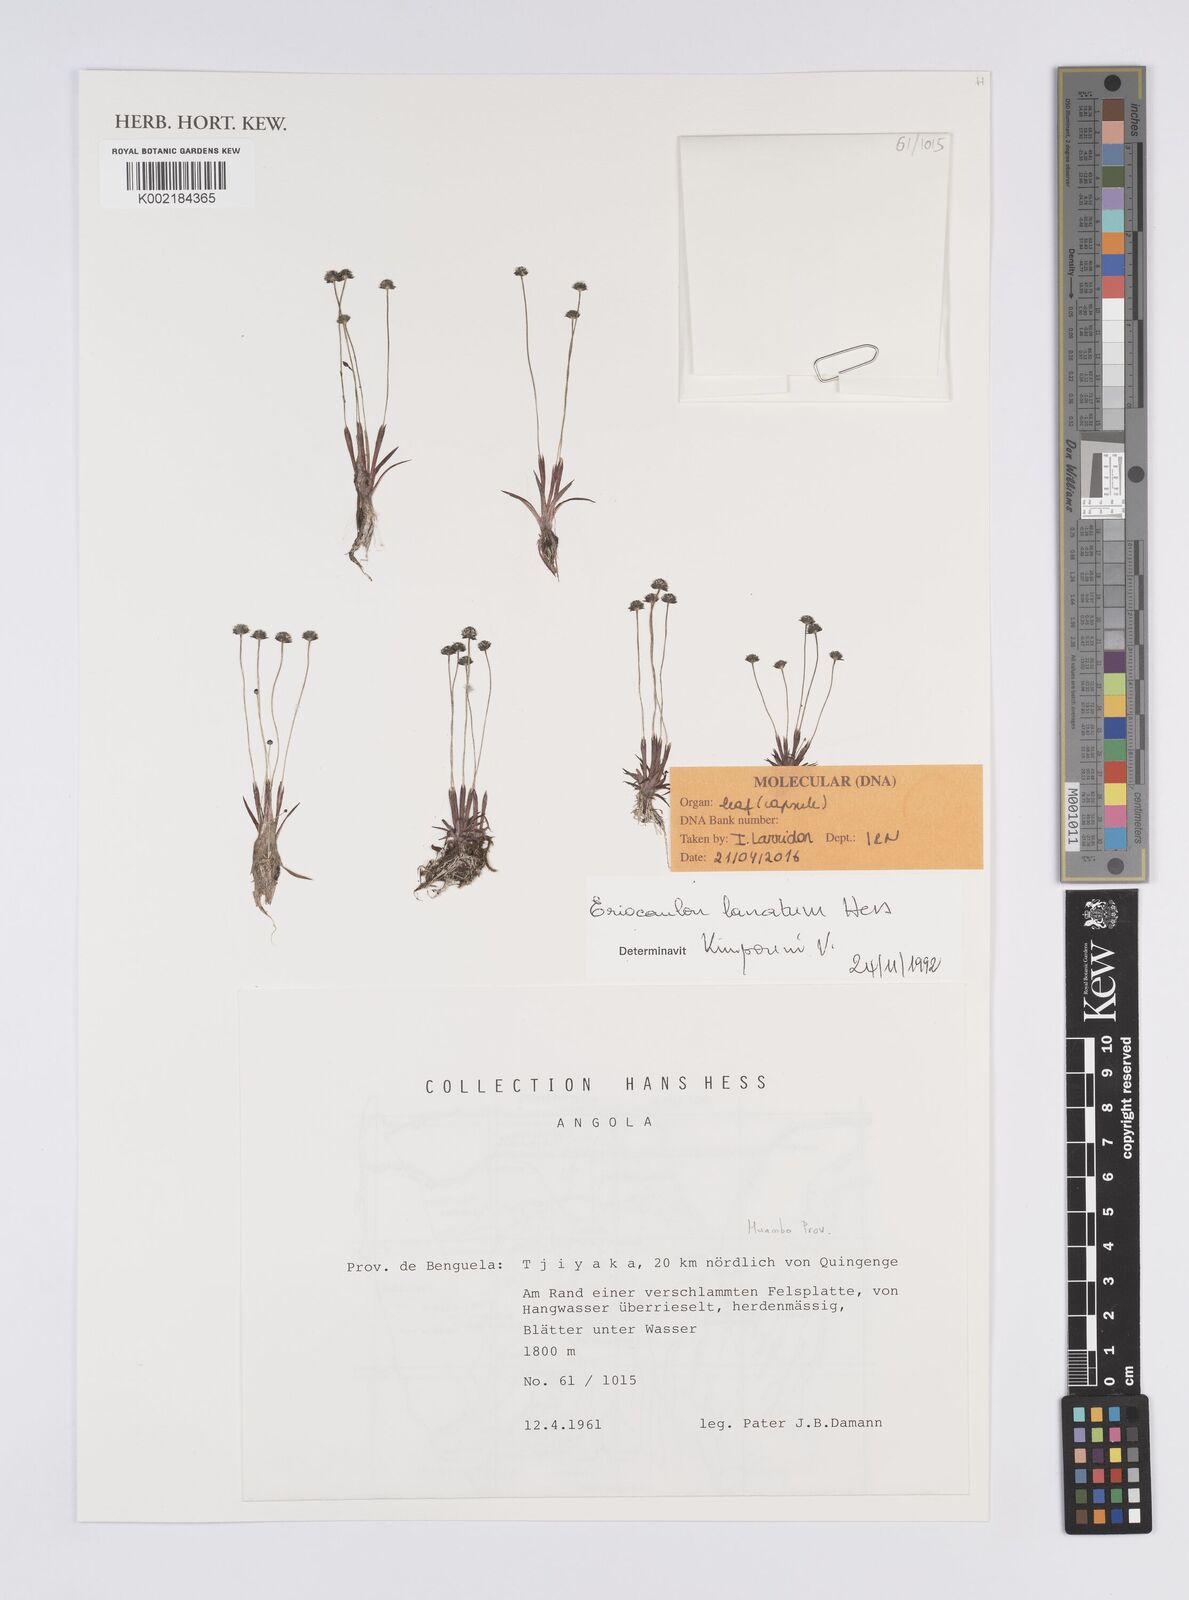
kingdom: Plantae
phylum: Tracheophyta
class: Liliopsida
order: Poales
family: Eriocaulaceae
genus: Eriocaulon
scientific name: Eriocaulon lanatum
